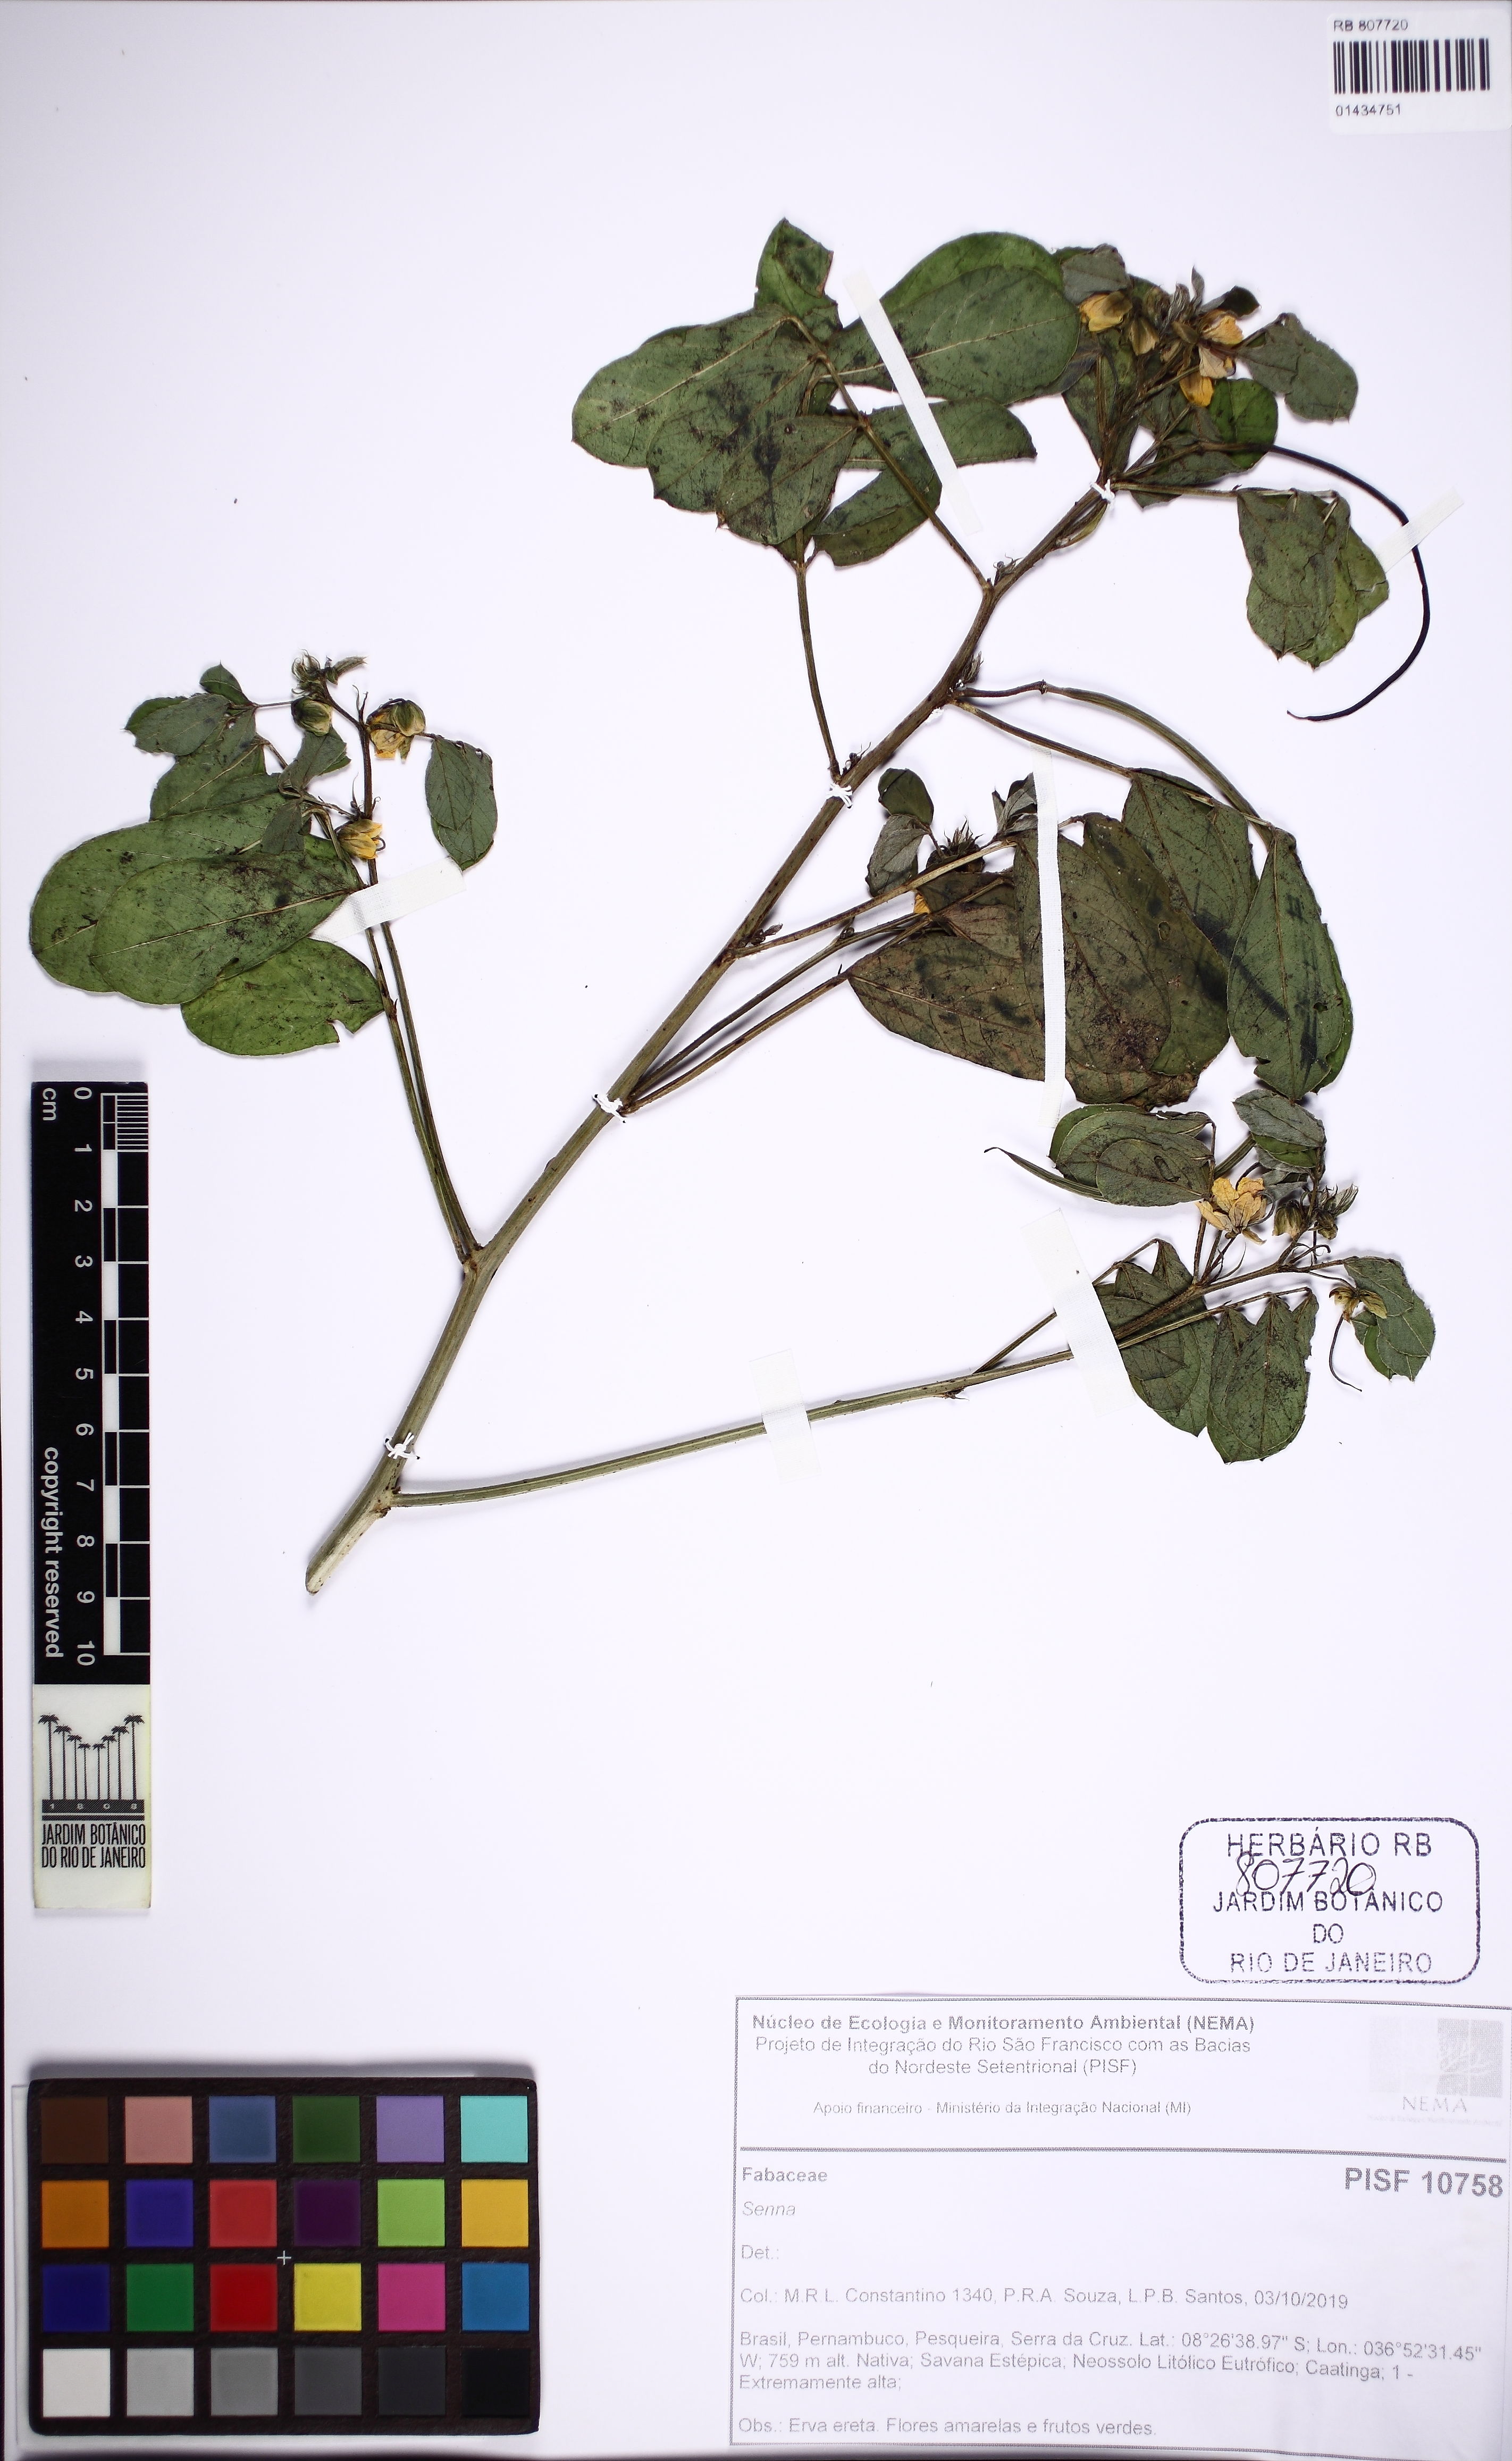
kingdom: Plantae
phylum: Tracheophyta
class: Magnoliopsida
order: Fabales
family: Fabaceae
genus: Senna
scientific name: Senna
